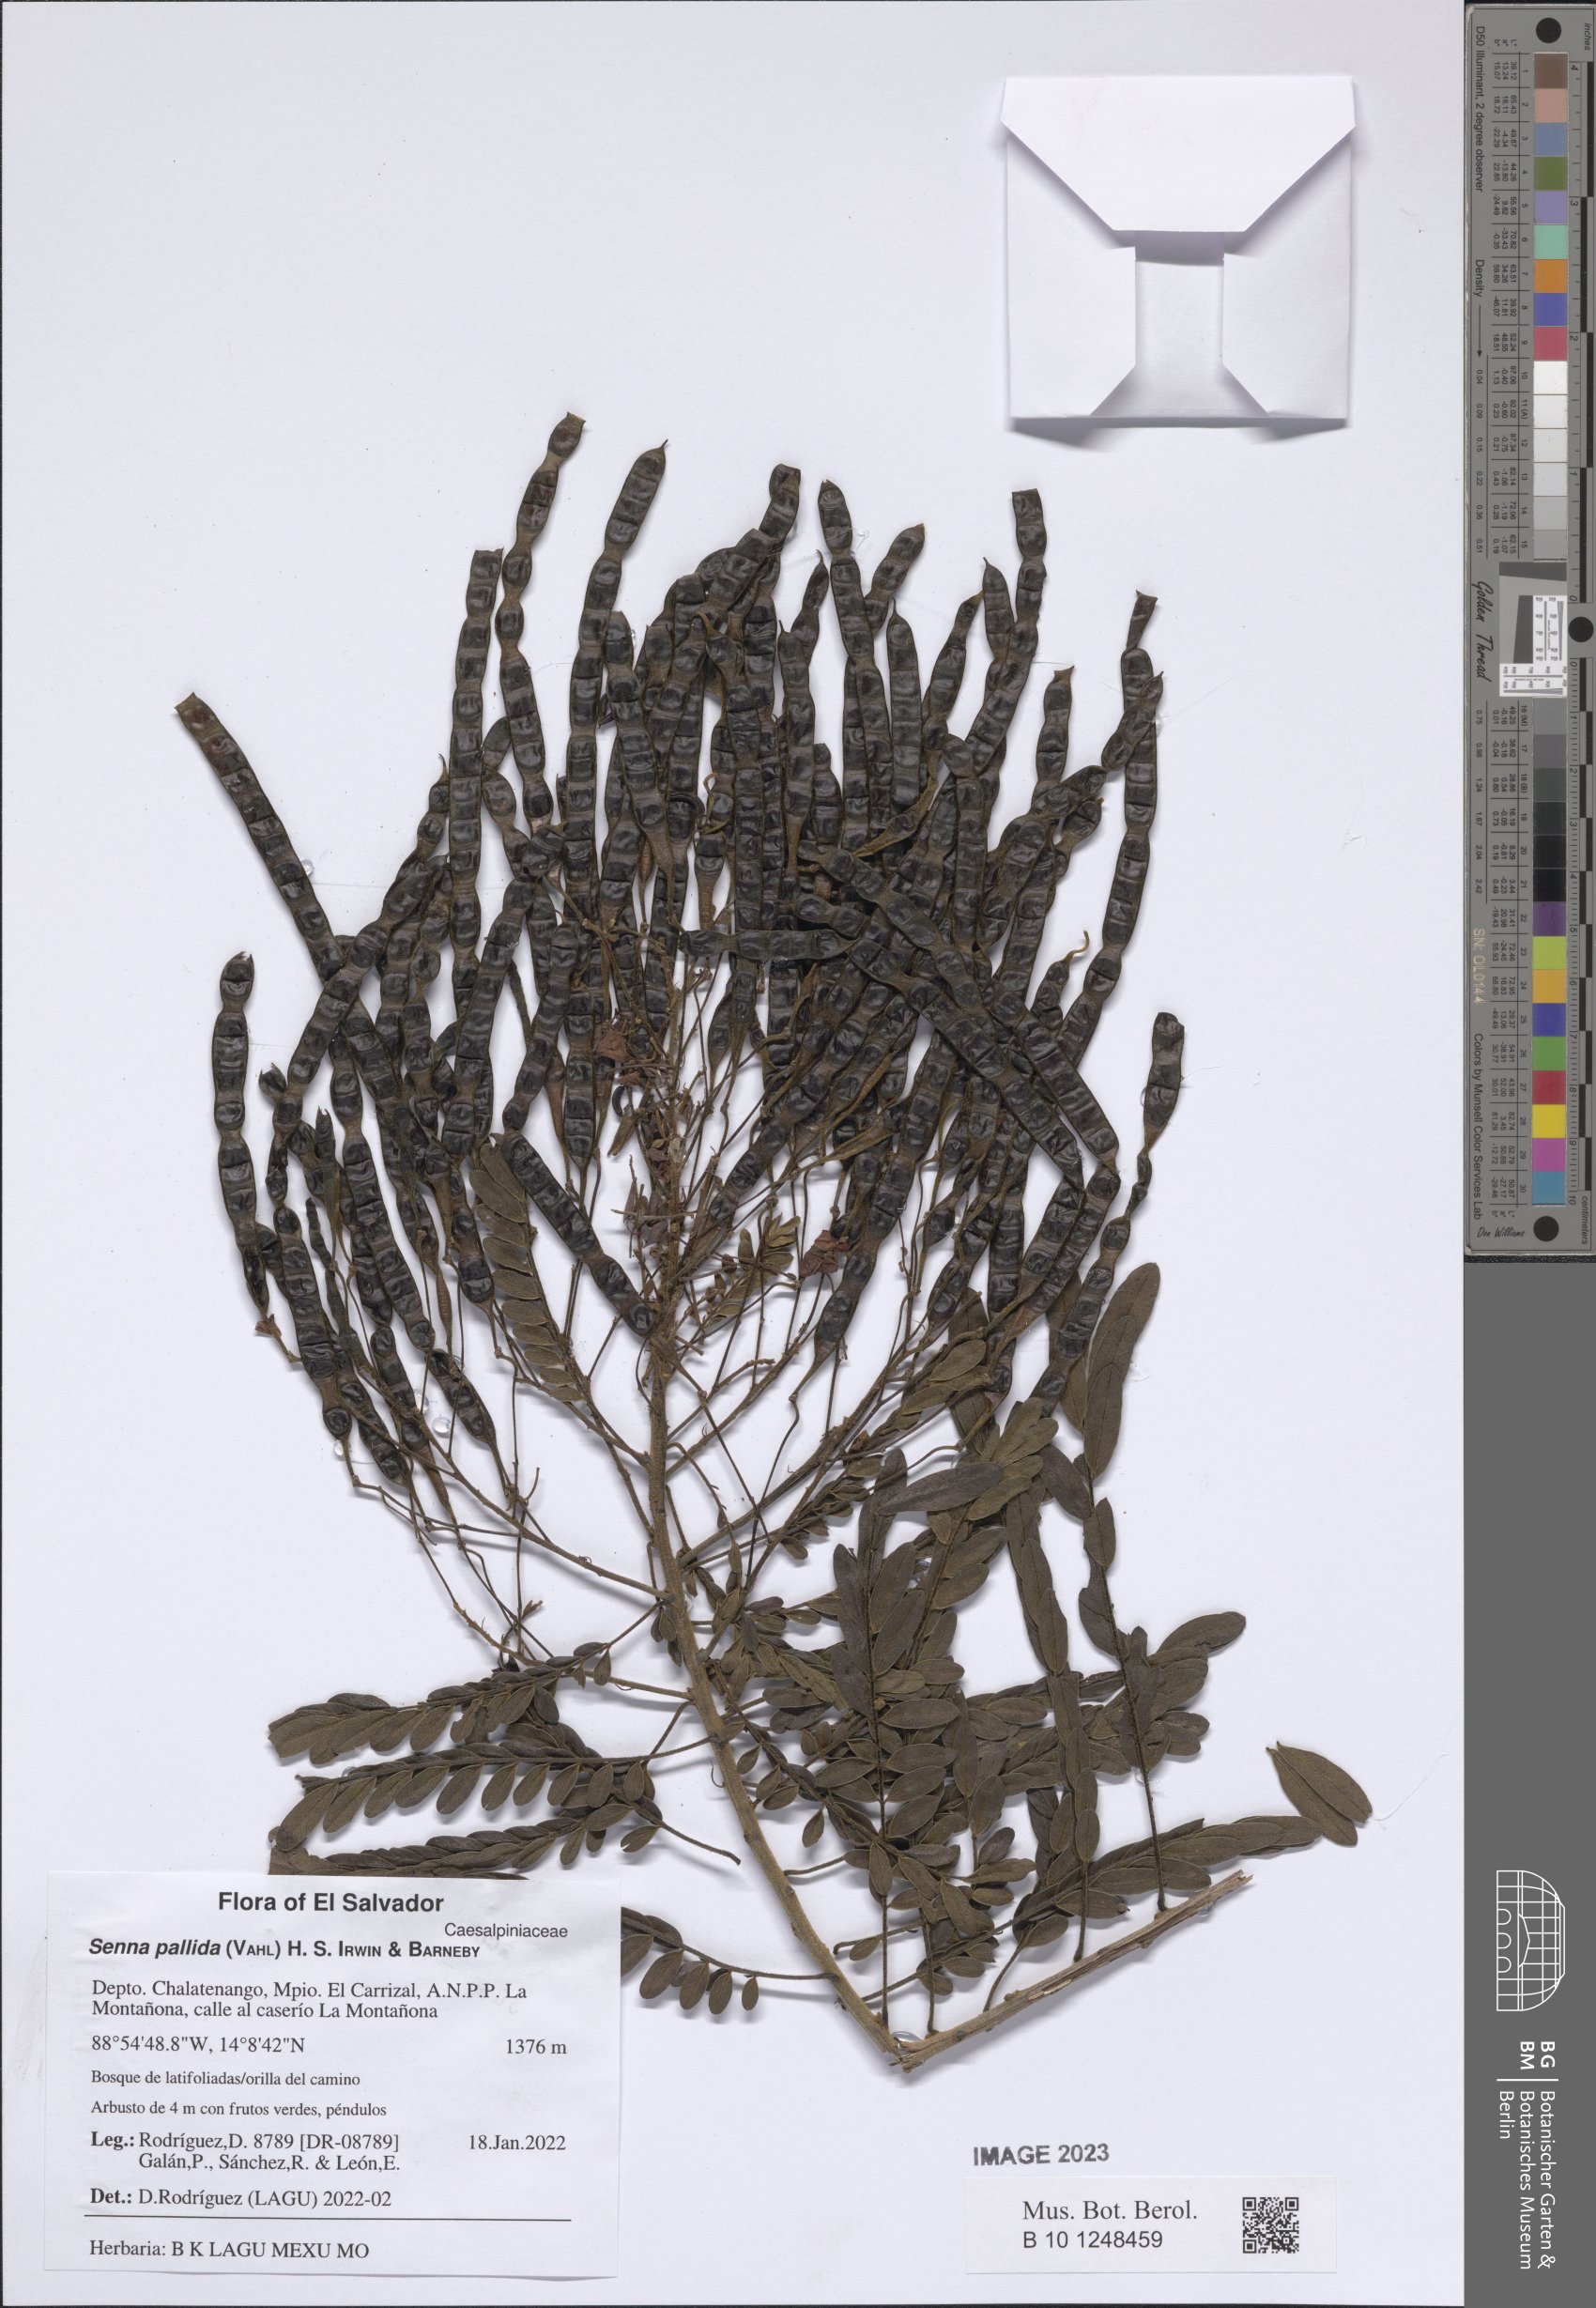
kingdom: Plantae
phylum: Tracheophyta
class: Magnoliopsida
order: Fabales
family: Fabaceae
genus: Senna
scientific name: Senna pallida
